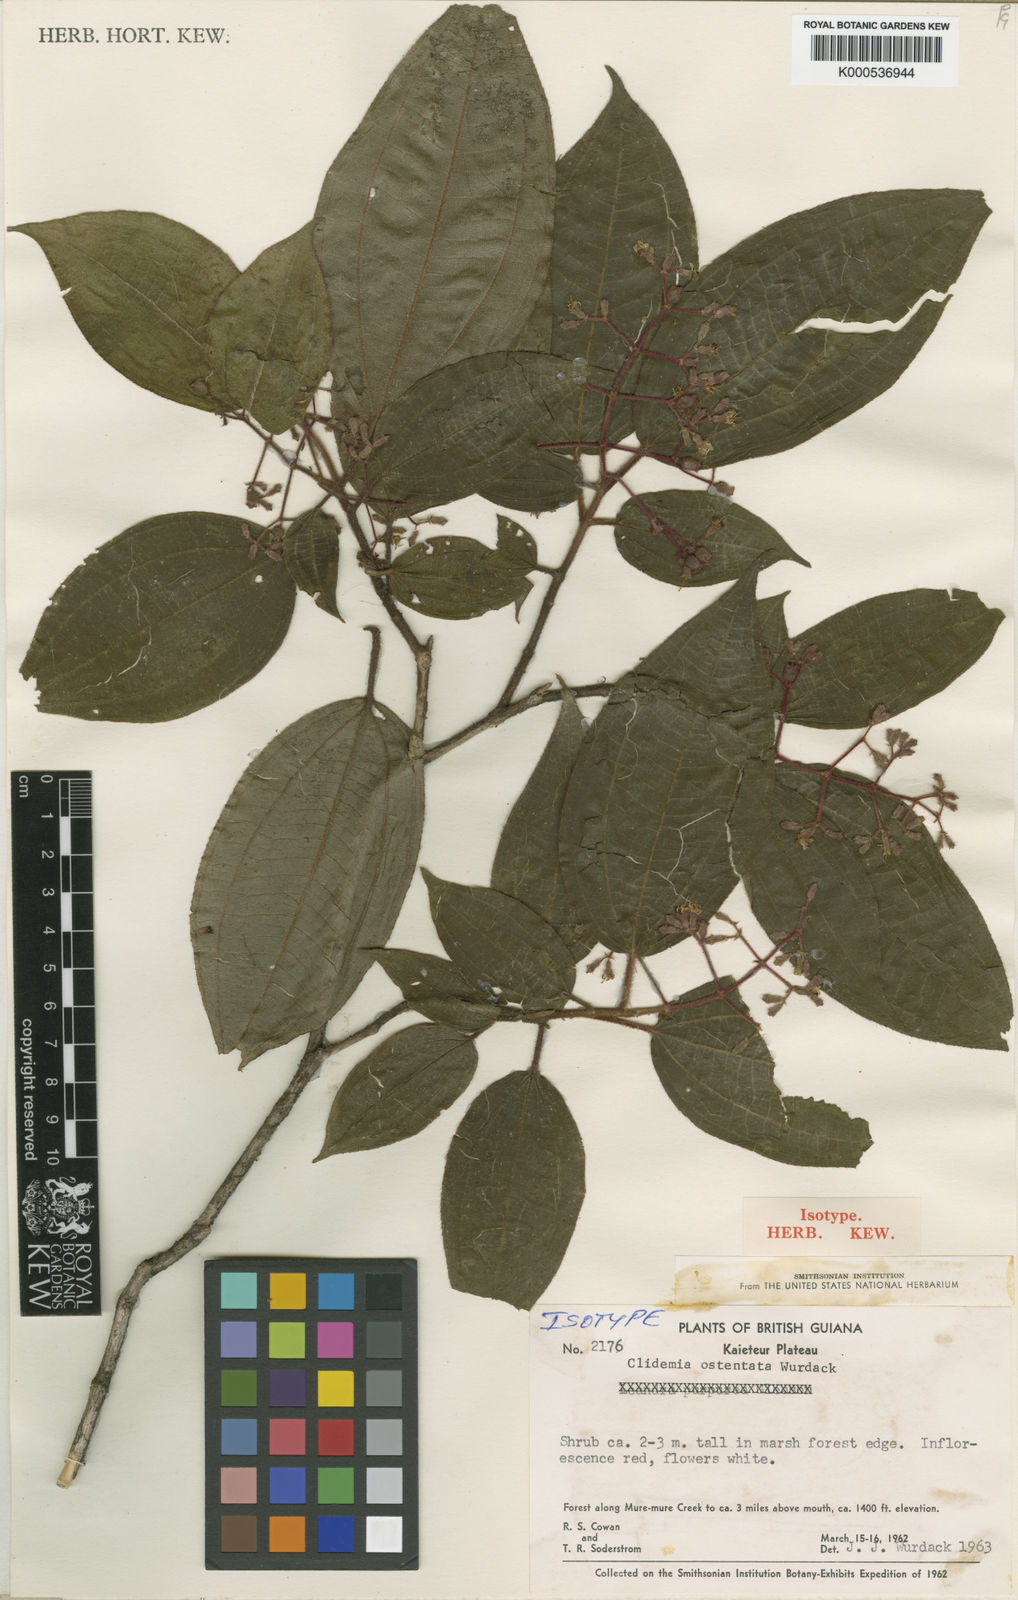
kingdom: Plantae
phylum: Tracheophyta
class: Magnoliopsida
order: Myrtales
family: Melastomataceae
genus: Miconia
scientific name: Miconia ostentata
